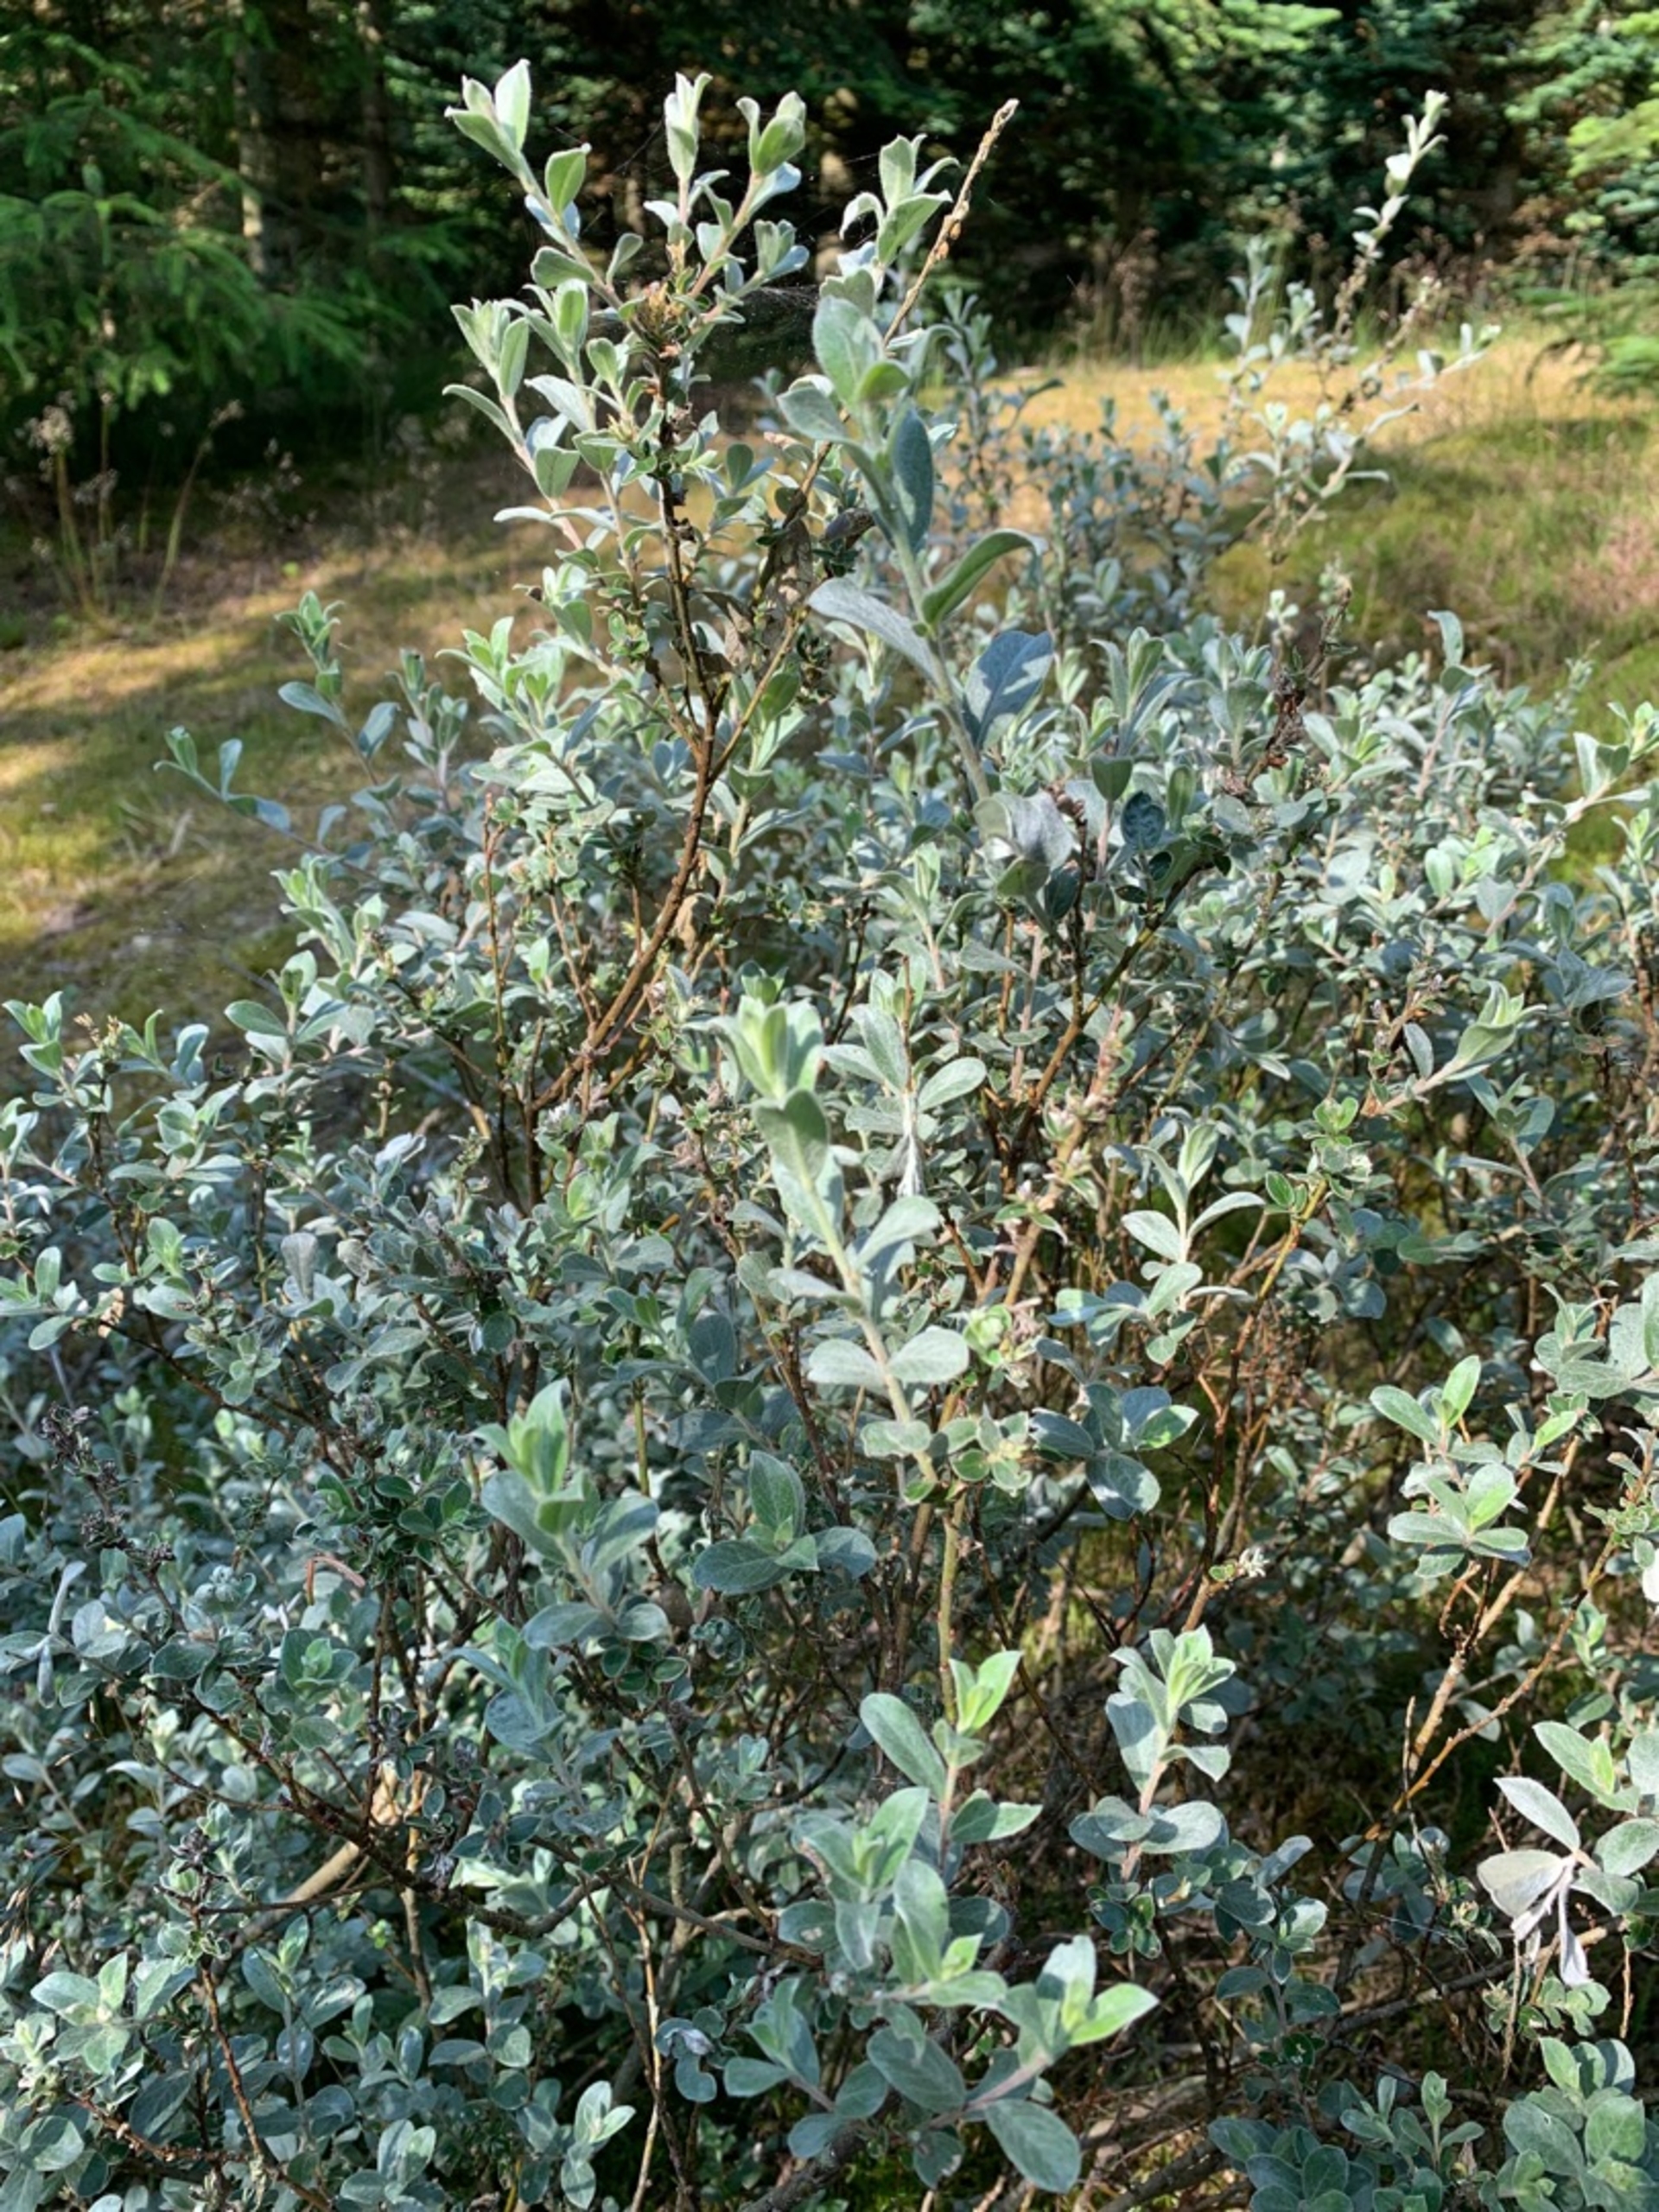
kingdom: Plantae
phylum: Tracheophyta
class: Magnoliopsida
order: Malpighiales
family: Salicaceae
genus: Salix
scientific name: Salix repens
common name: Gråris
